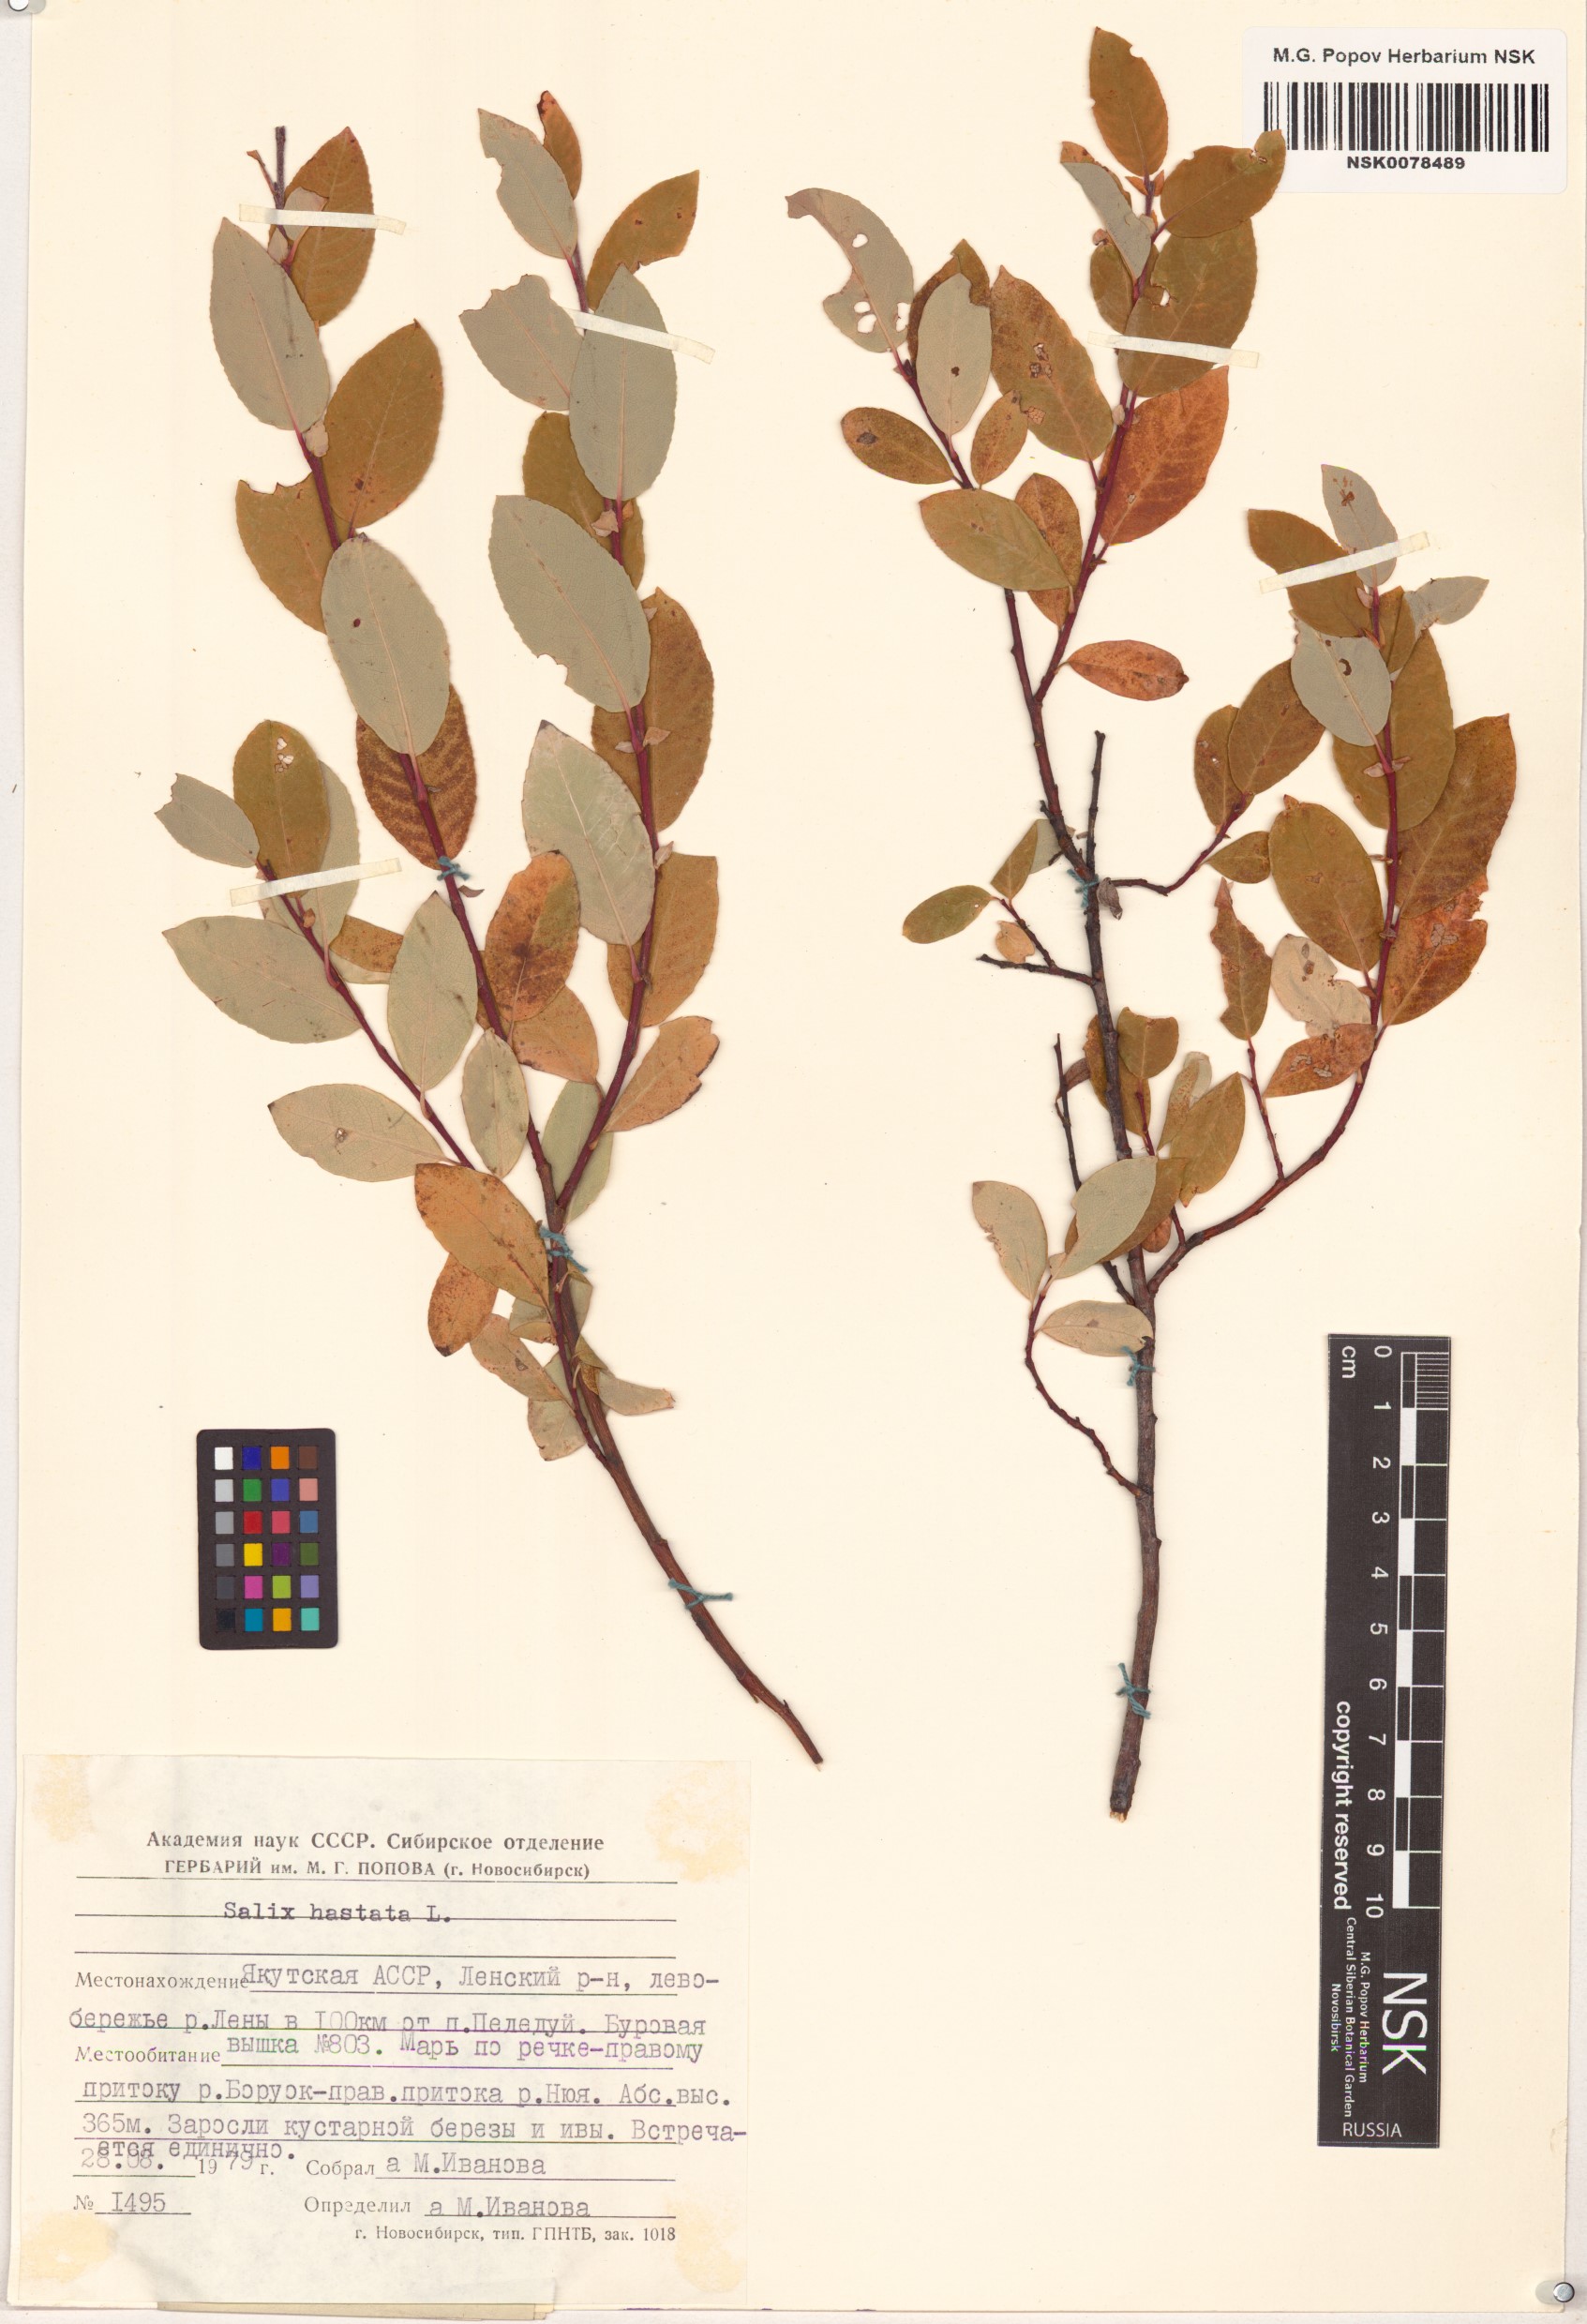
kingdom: Plantae
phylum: Tracheophyta
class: Magnoliopsida
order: Malpighiales
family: Salicaceae
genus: Salix
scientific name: Salix hastata
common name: Halberd willow
